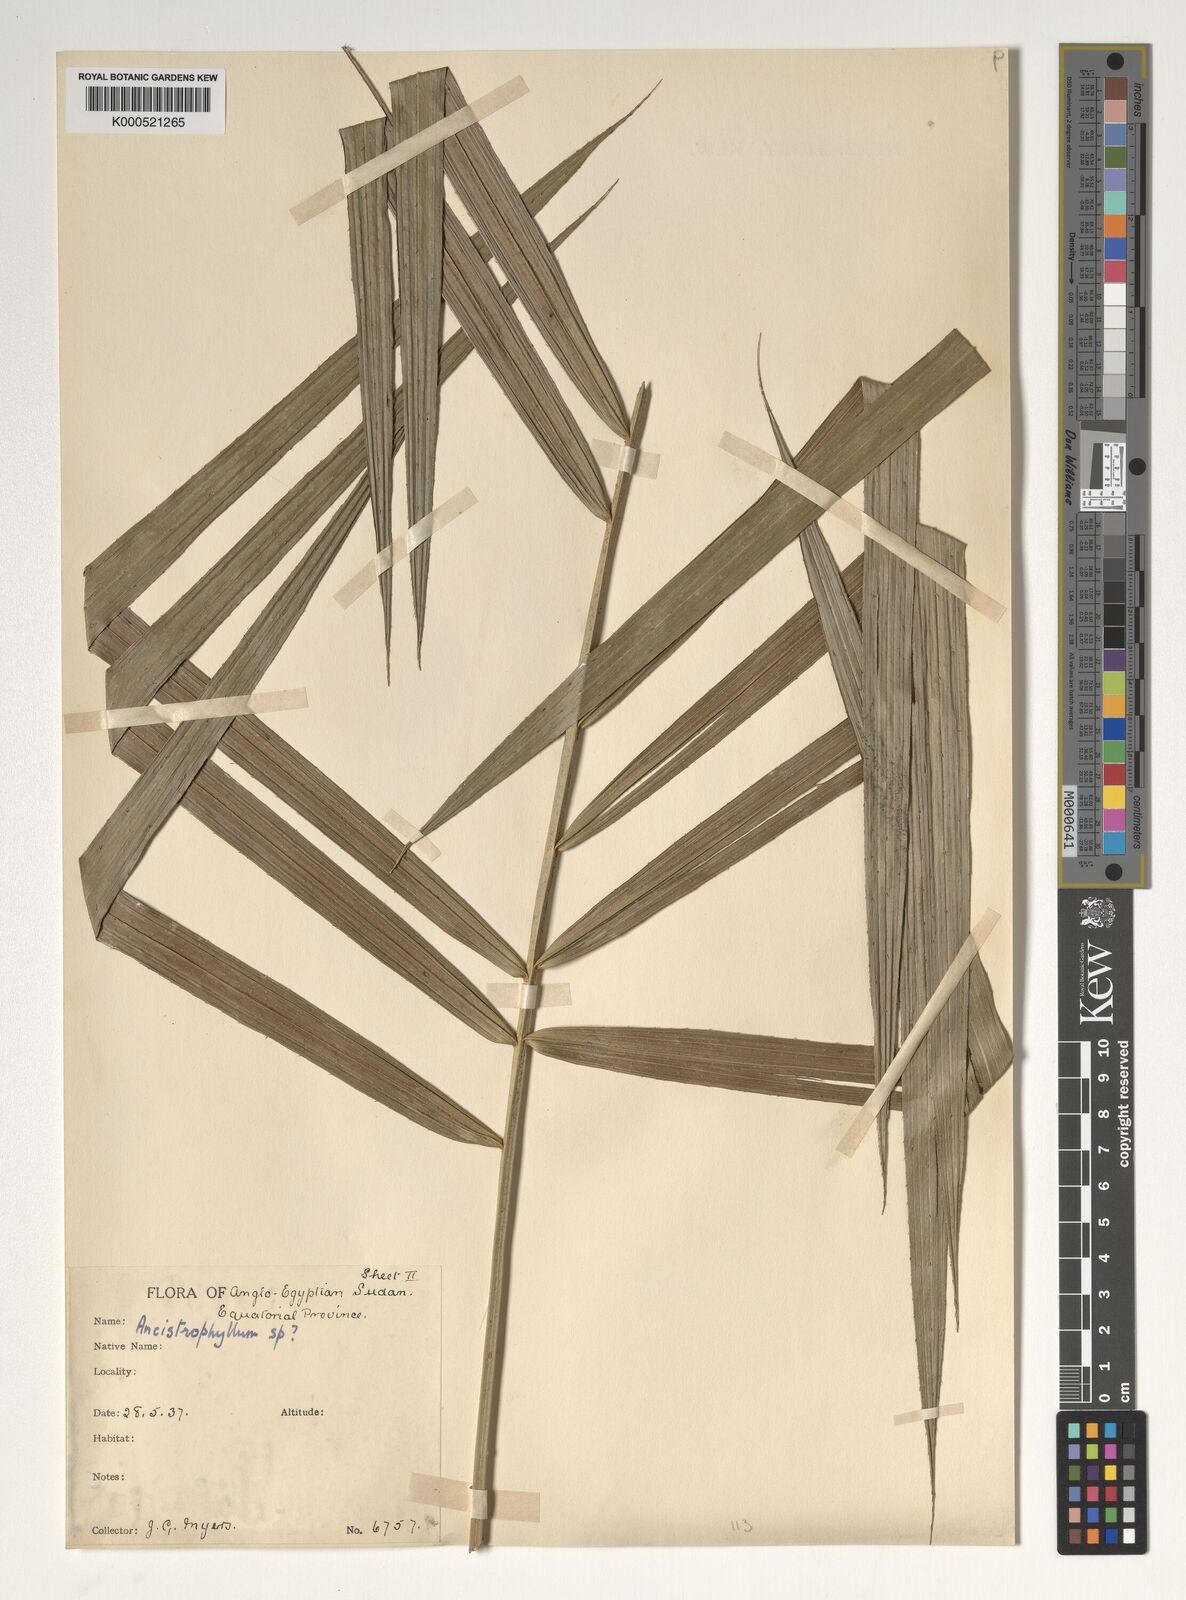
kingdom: Plantae
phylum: Tracheophyta
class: Liliopsida
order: Arecales
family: Arecaceae
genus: Calamus
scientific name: Calamus deerratus
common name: Rattan
